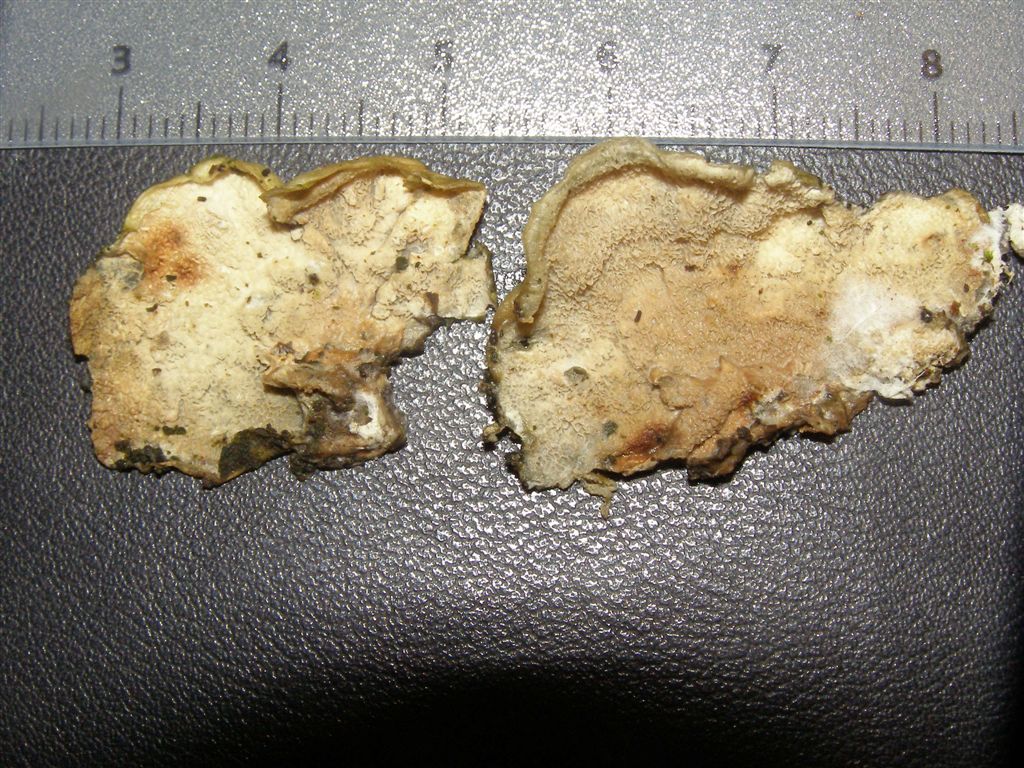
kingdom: Fungi
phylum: Basidiomycota
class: Agaricomycetes
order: Polyporales
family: Irpicaceae
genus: Byssomerulius
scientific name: Byssomerulius corium
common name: læder-åresvamp
